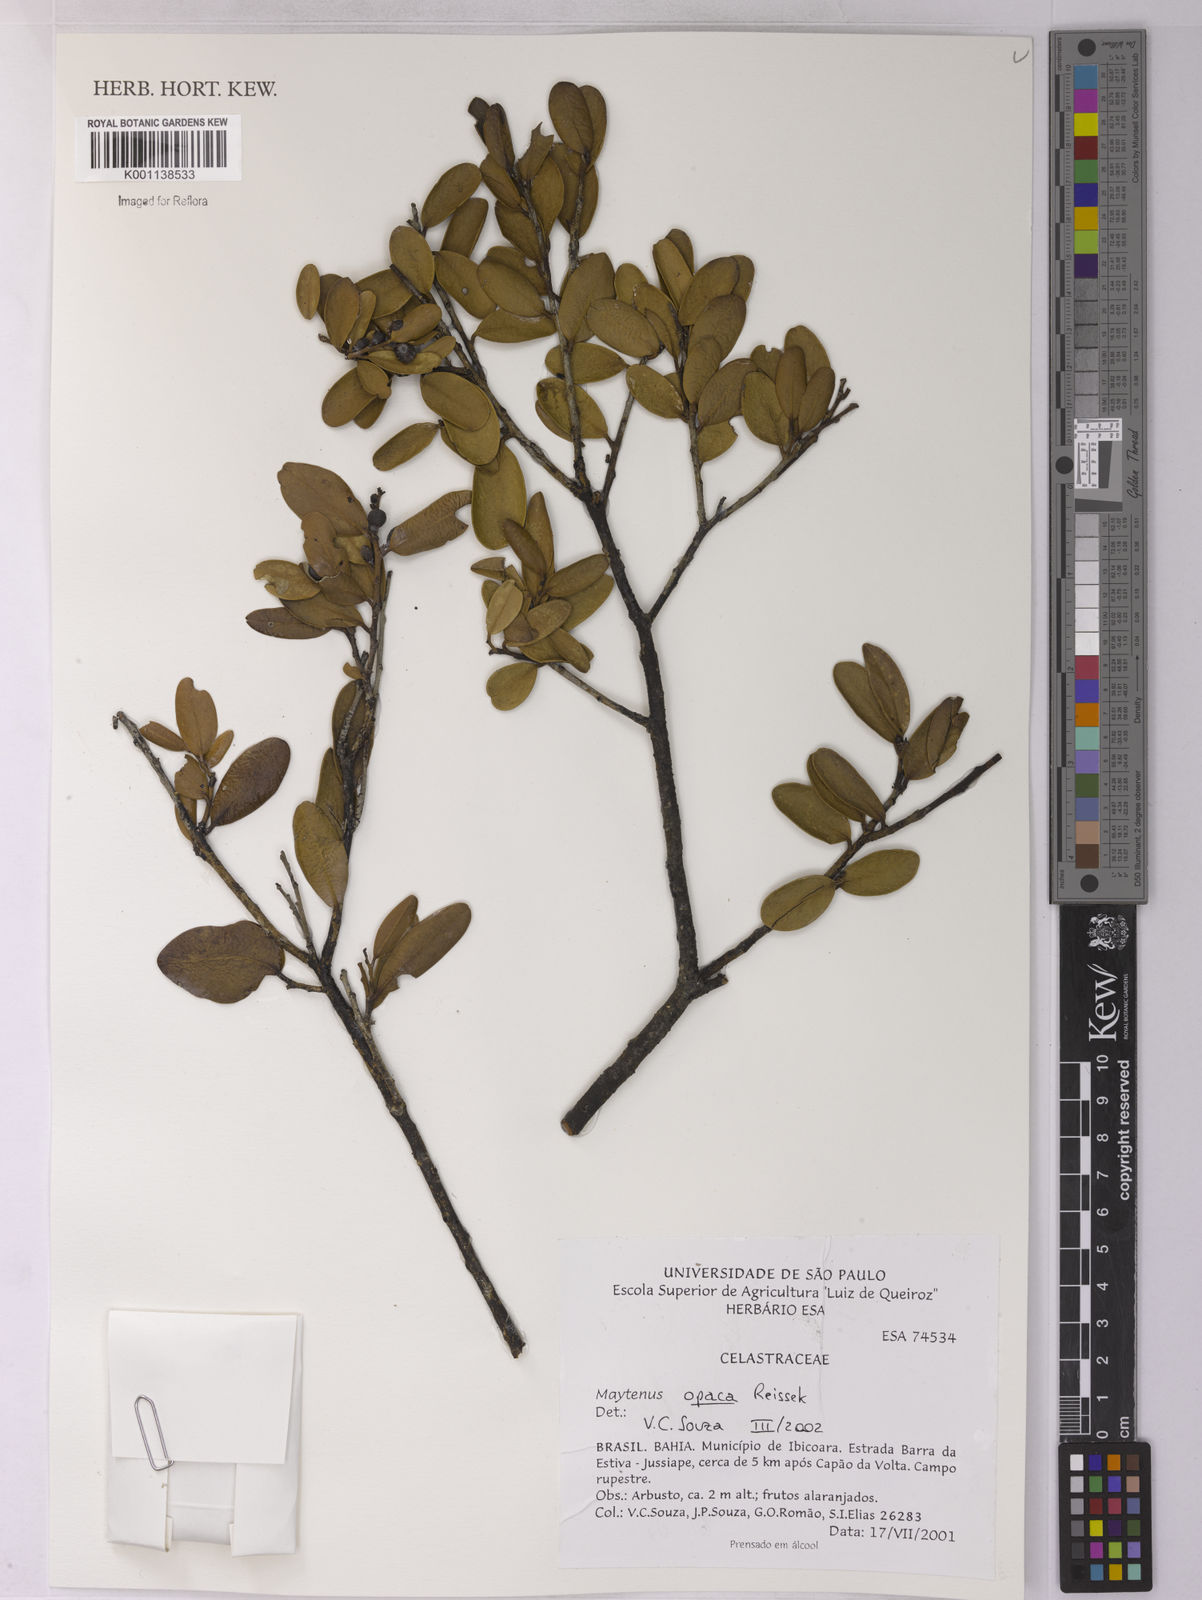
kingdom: Plantae
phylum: Tracheophyta
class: Magnoliopsida
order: Celastrales
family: Celastraceae
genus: Monteverdia
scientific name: Monteverdia opaca
